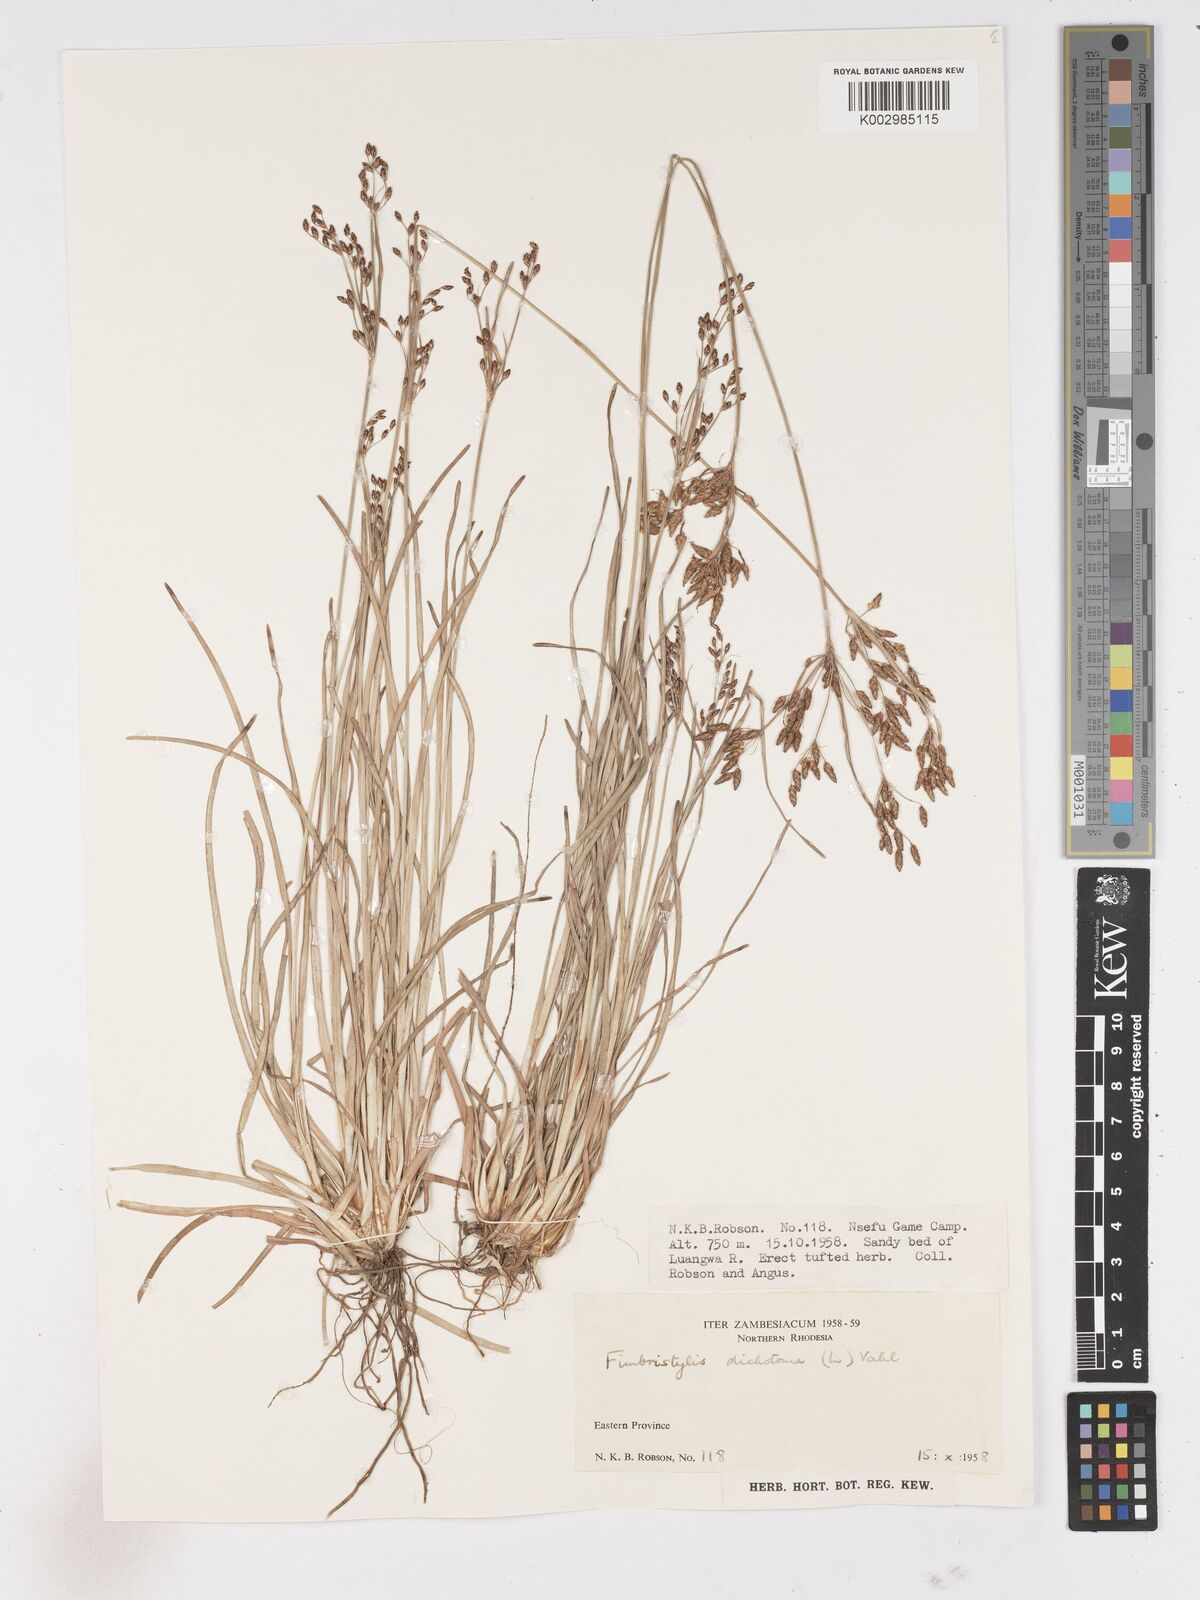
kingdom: Plantae
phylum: Tracheophyta
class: Liliopsida
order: Poales
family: Cyperaceae
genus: Fimbristylis
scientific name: Fimbristylis dichotoma
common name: Forked fimbry
